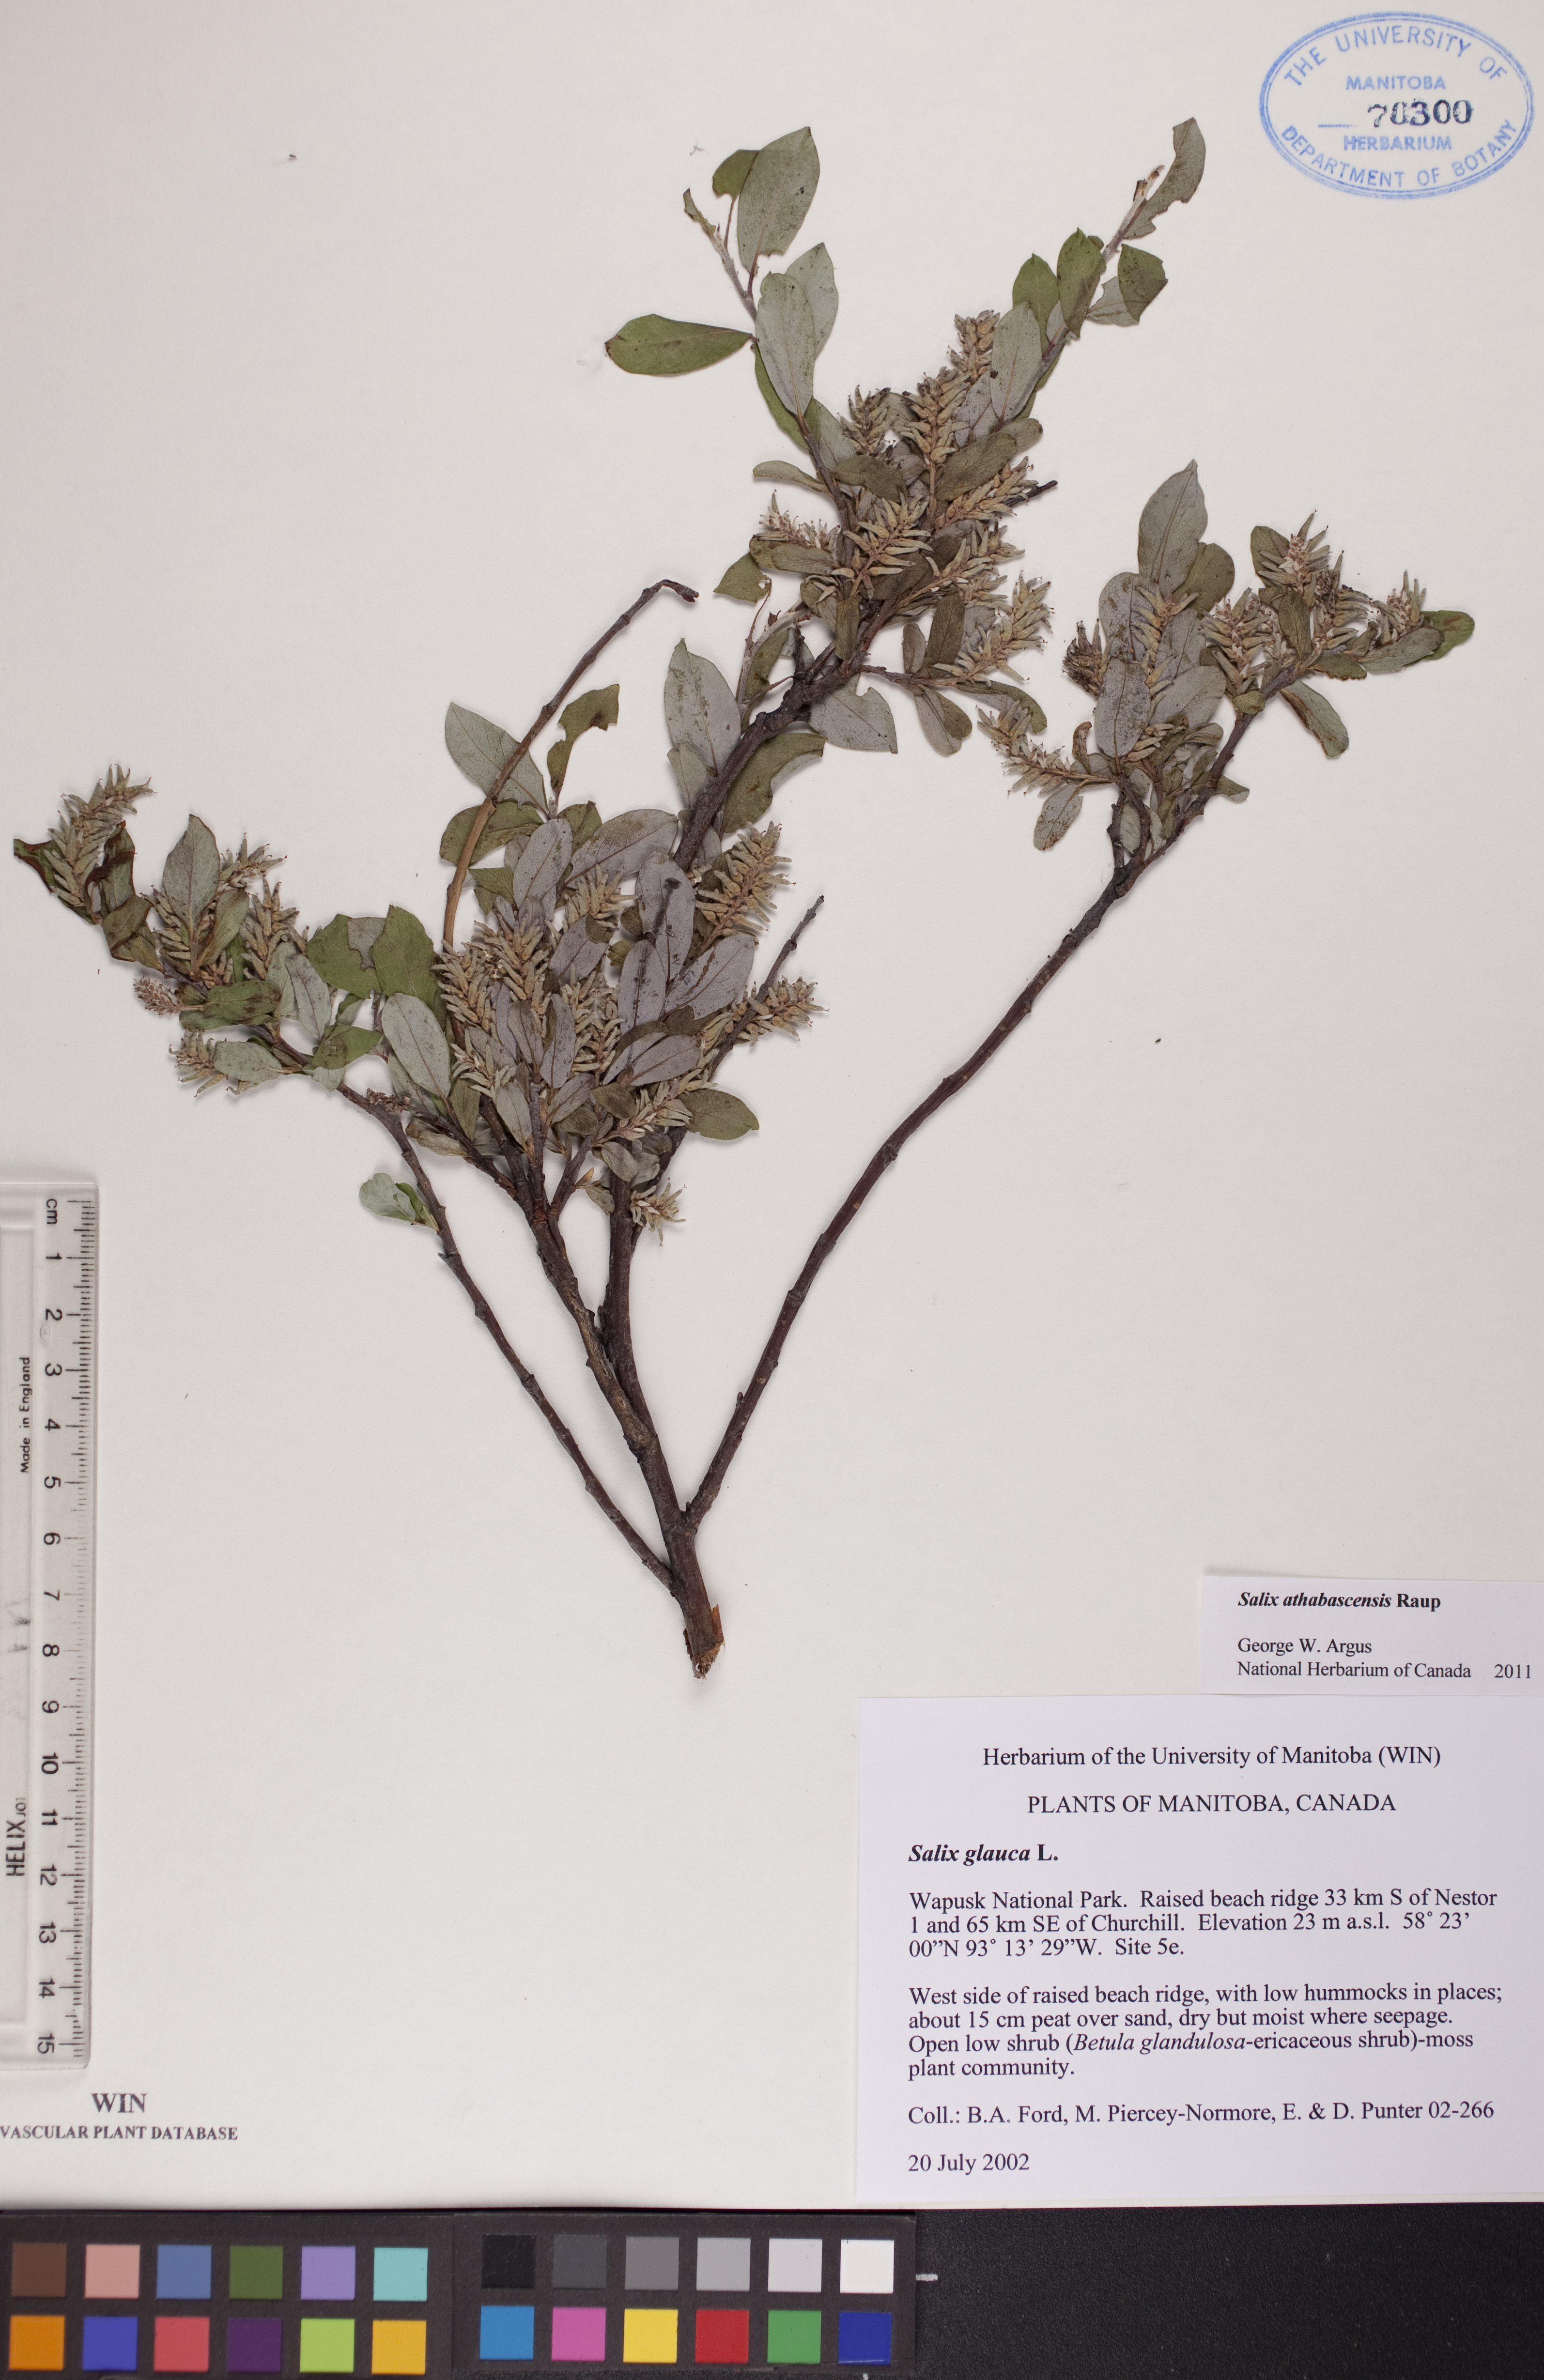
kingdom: Plantae
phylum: Tracheophyta
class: Magnoliopsida
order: Malpighiales
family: Salicaceae
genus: Salix
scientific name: Salix athabascensis
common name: Athabasca willow
